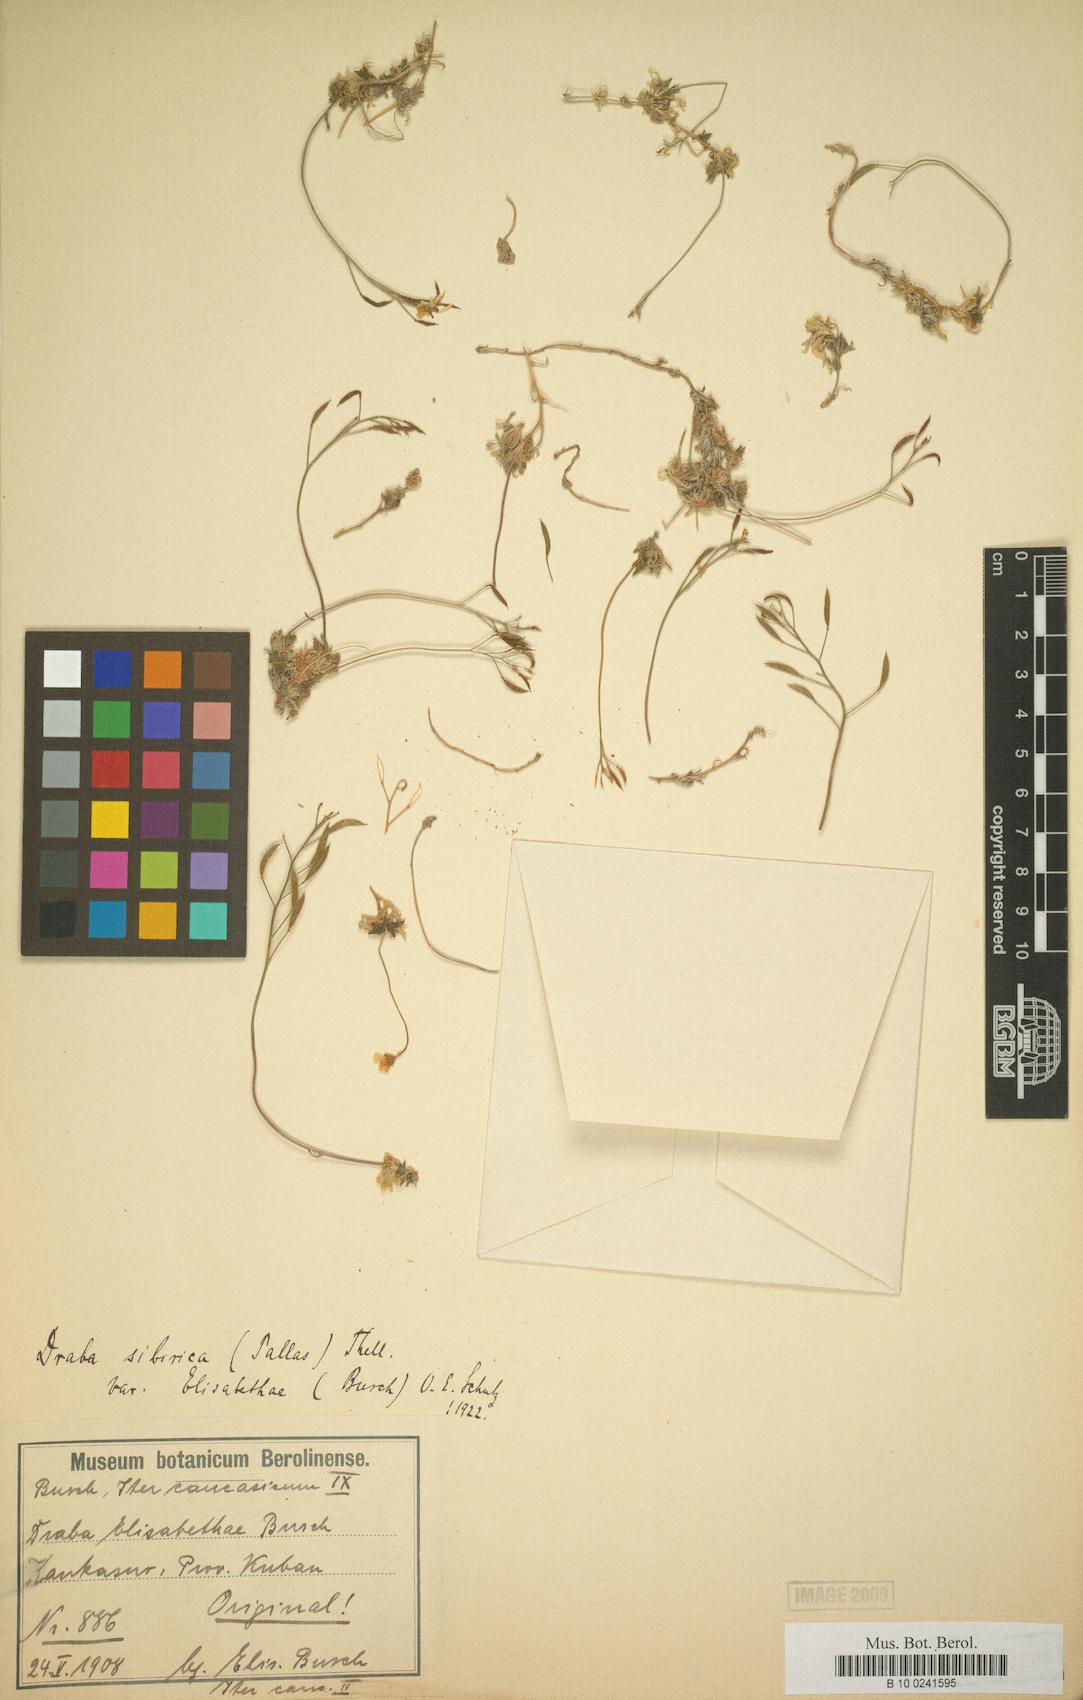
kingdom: Plantae
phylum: Tracheophyta
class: Magnoliopsida
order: Brassicales
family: Brassicaceae
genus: Draba
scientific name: Draba sibirica
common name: Siberian draba
